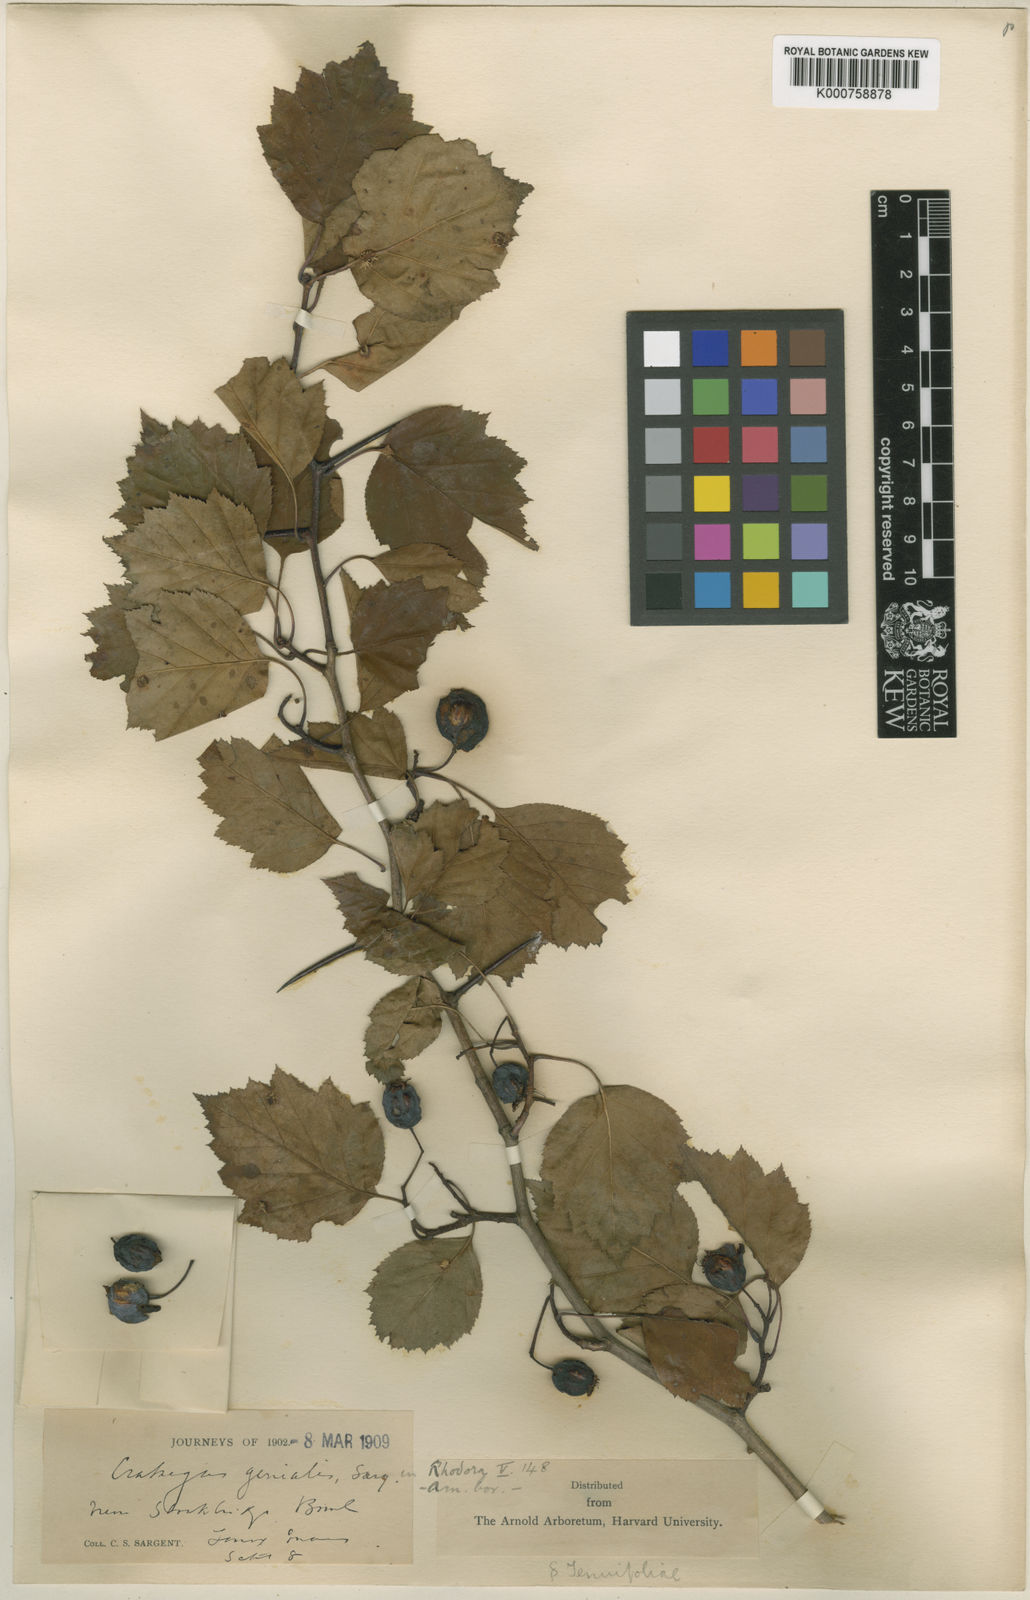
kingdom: Plantae
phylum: Tracheophyta
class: Magnoliopsida
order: Rosales
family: Rosaceae
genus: Crataegus
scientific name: Crataegus genialis
